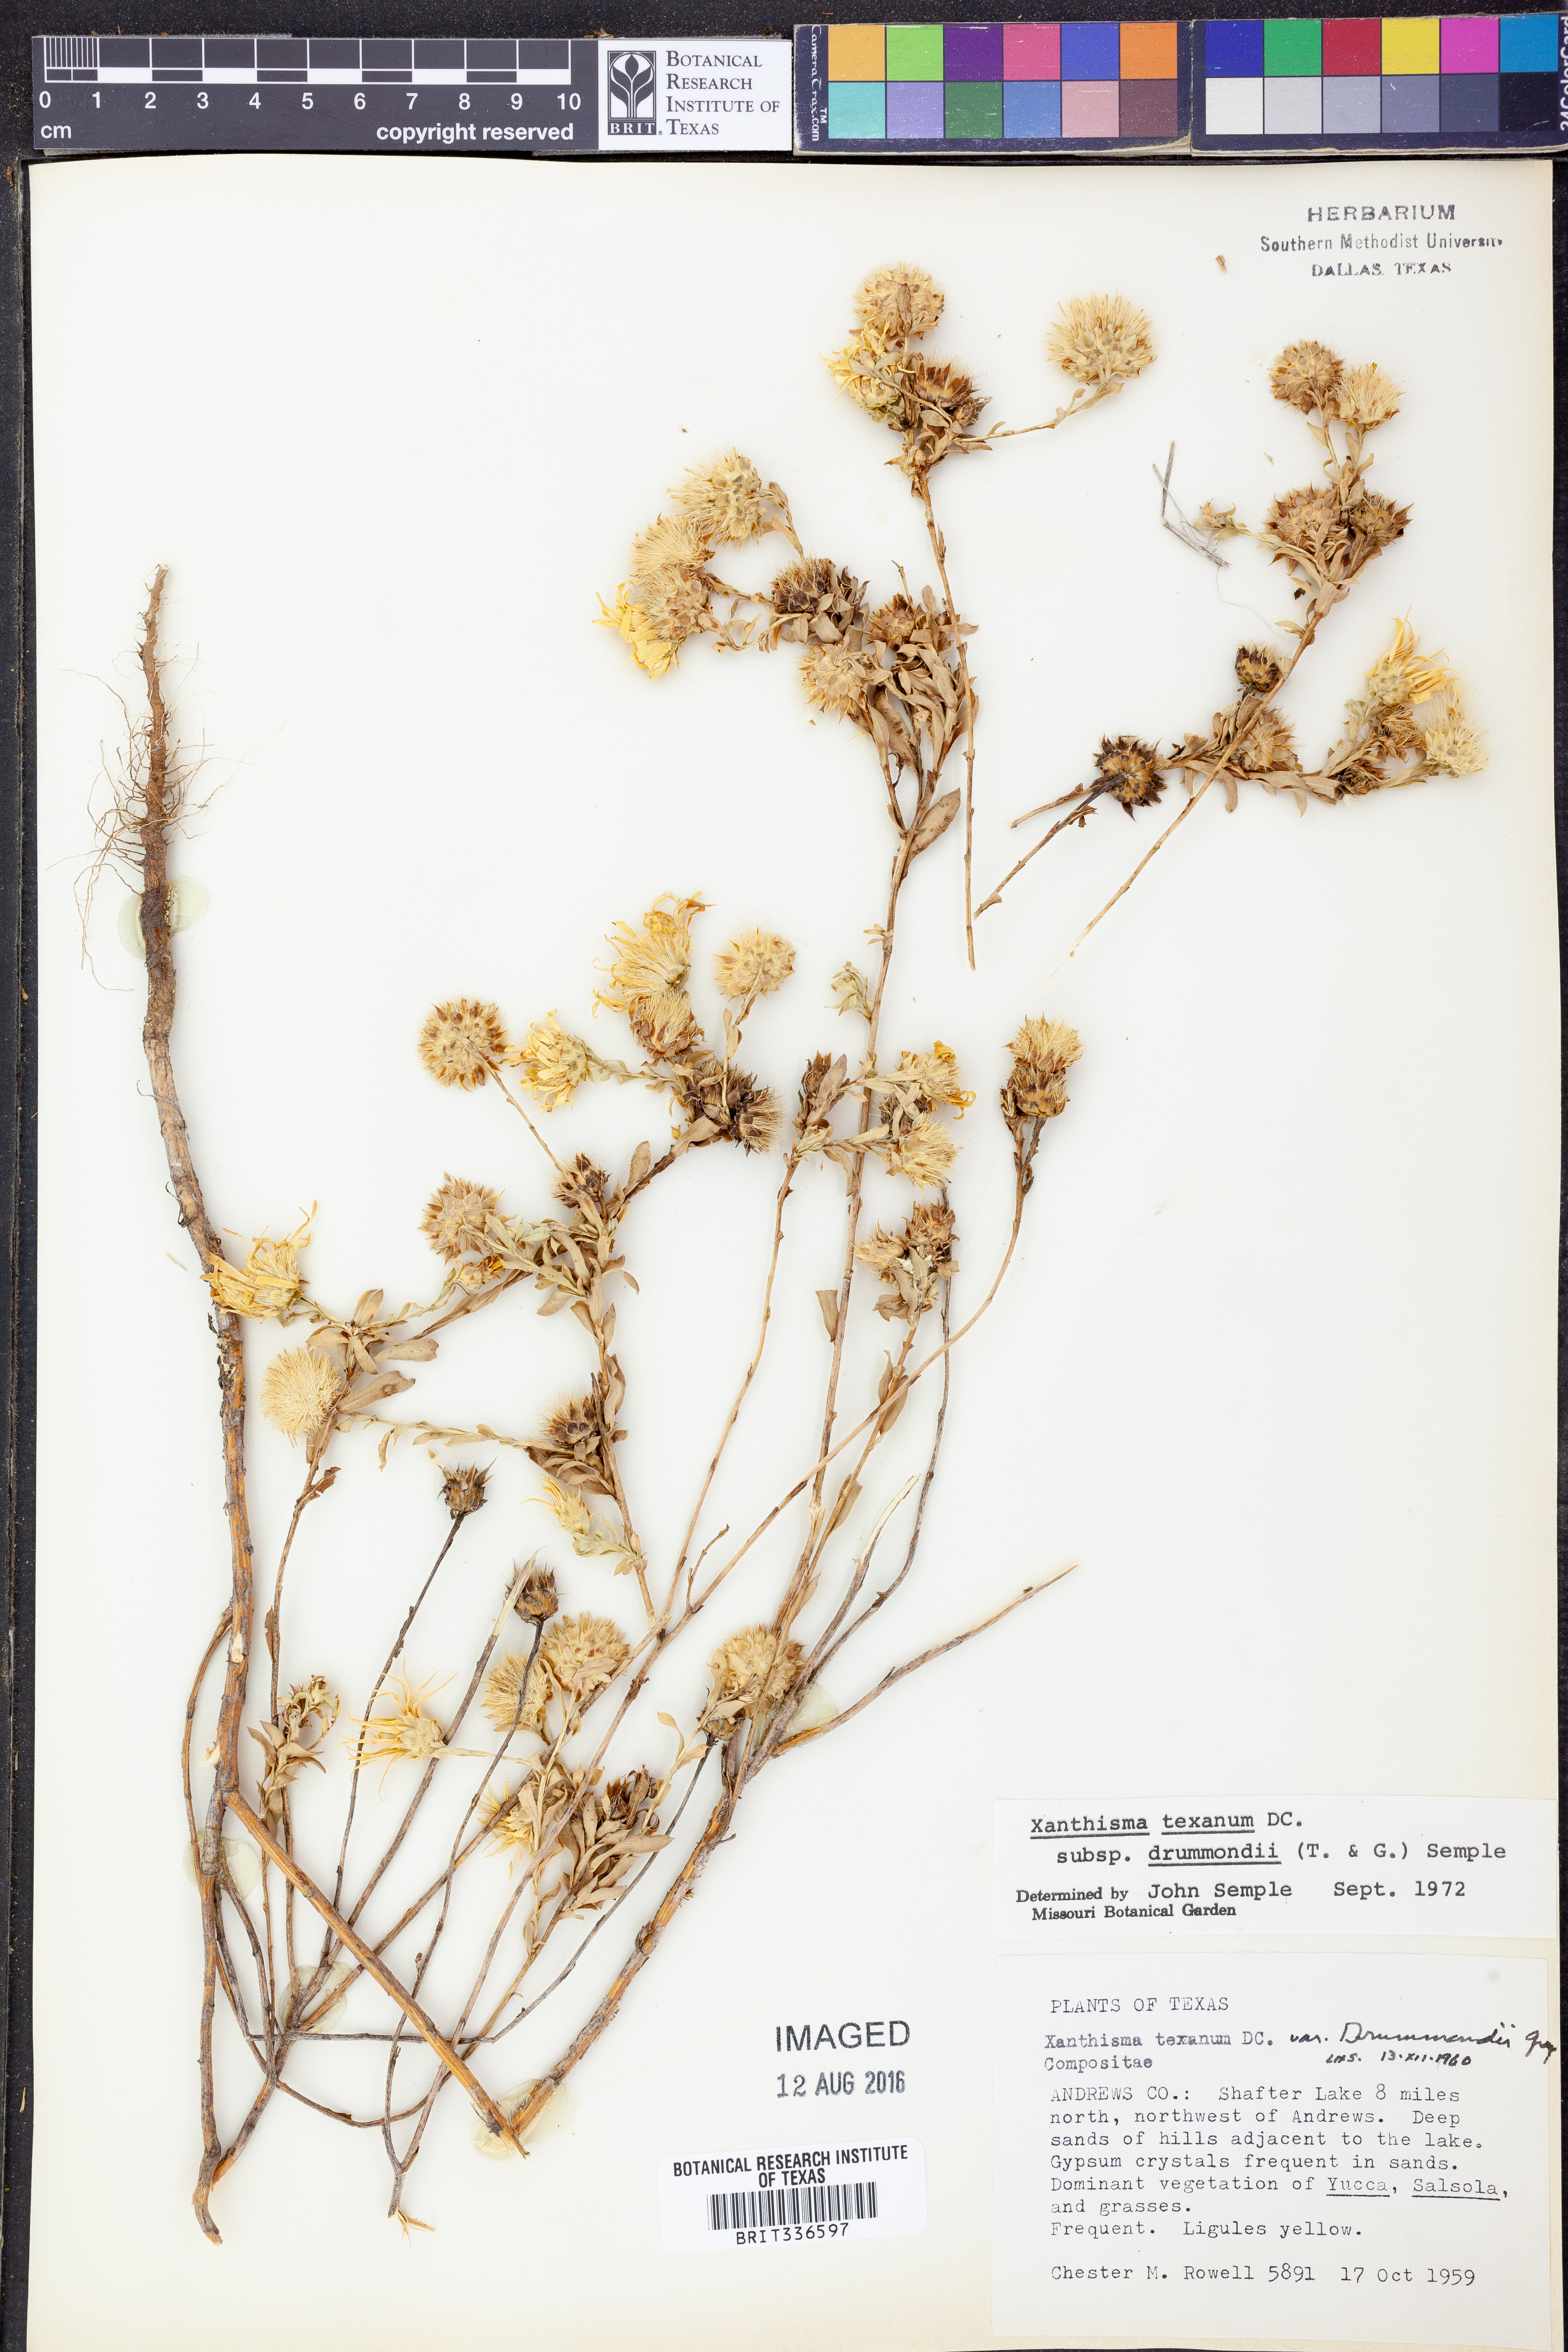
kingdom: Plantae
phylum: Tracheophyta
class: Magnoliopsida
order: Asterales
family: Asteraceae
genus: Xanthisma
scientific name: Xanthisma texanum
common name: Texas sleepy daisy
